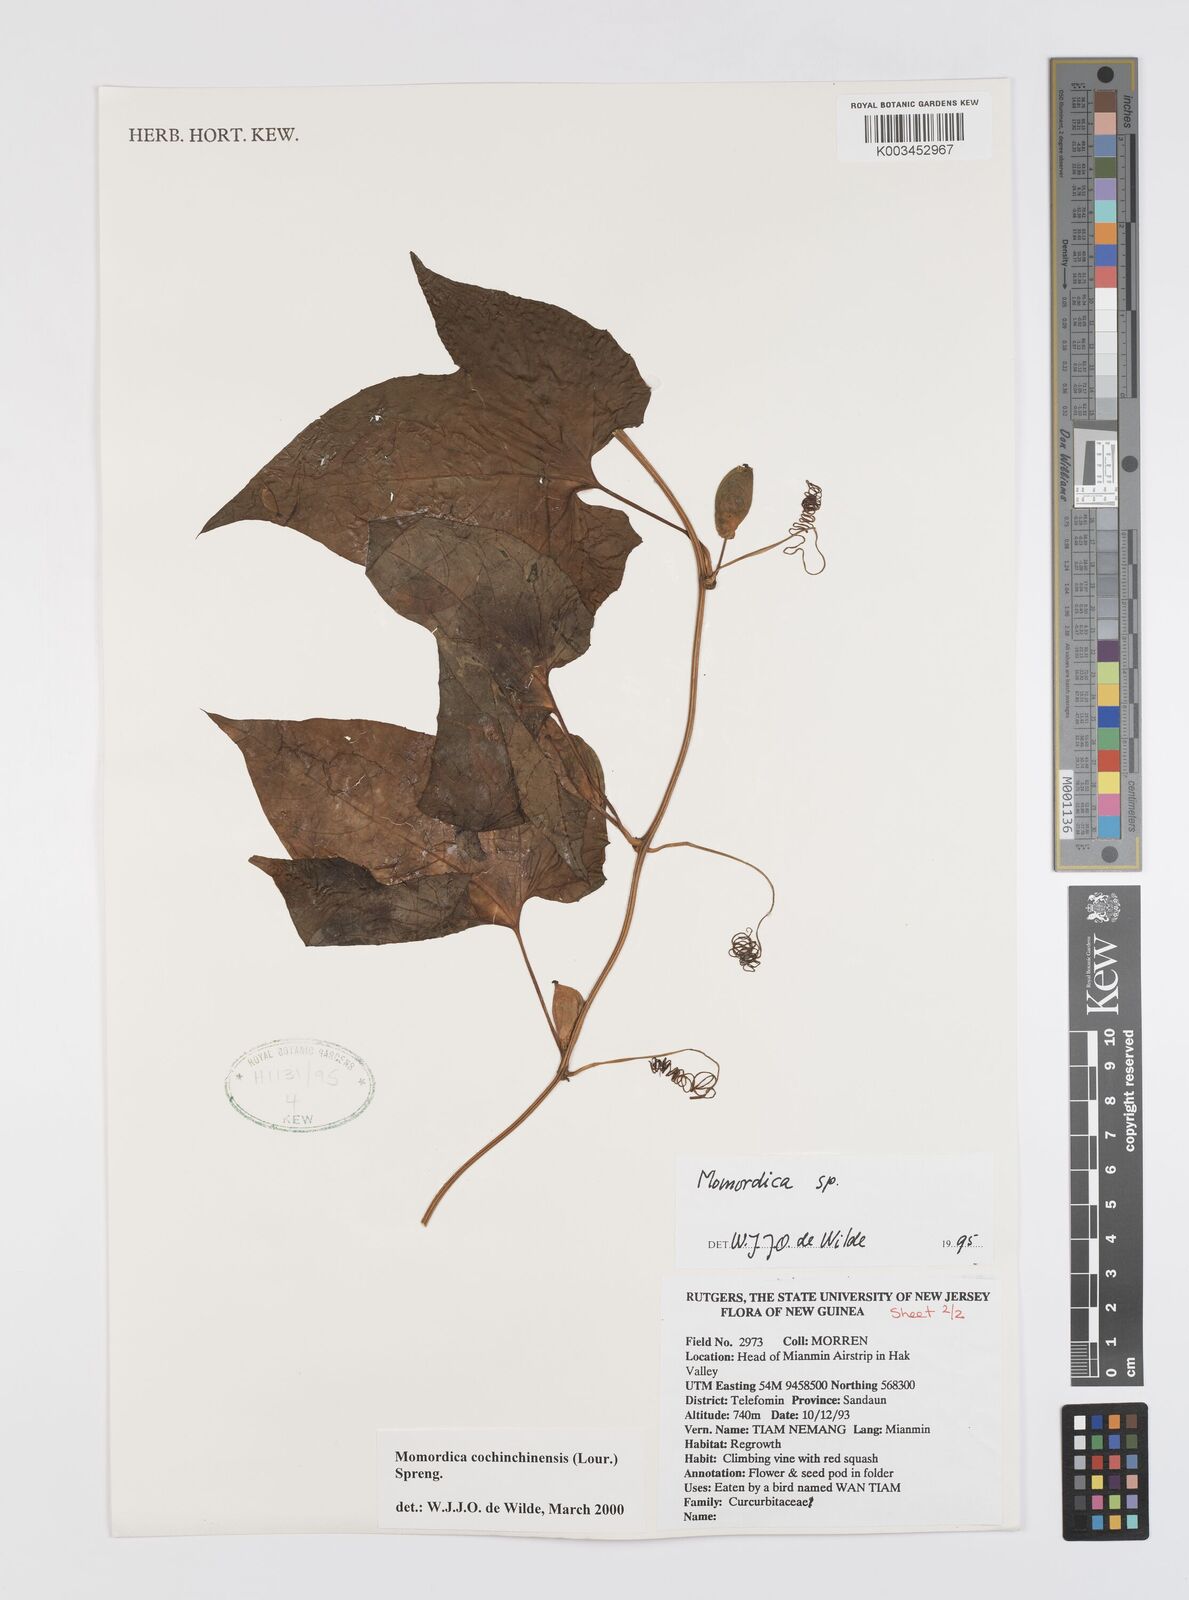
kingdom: Plantae
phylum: Tracheophyta
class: Magnoliopsida
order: Cucurbitales
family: Cucurbitaceae
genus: Momordica
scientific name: Momordica cochinchinensis
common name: Chinese bitter-cucumber
